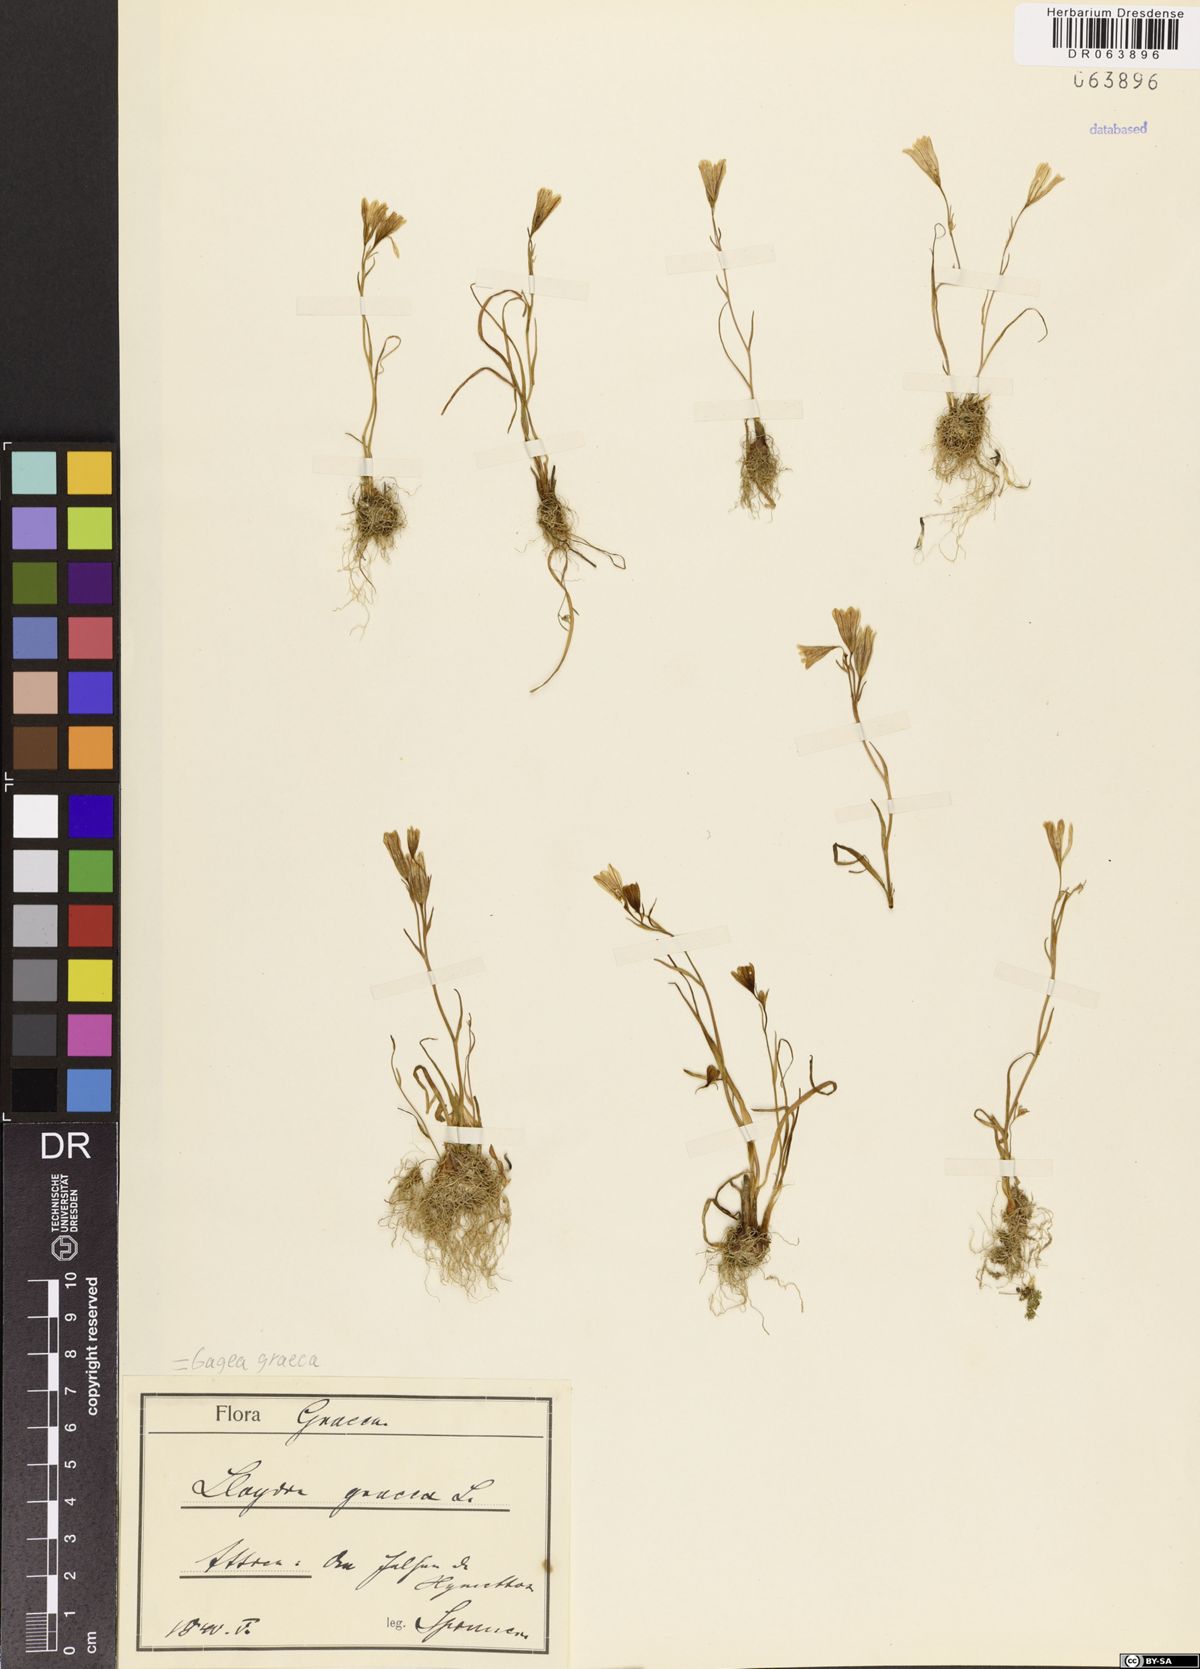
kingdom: Plantae
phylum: Tracheophyta
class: Liliopsida
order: Liliales
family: Liliaceae
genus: Gagea
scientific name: Gagea graeca
